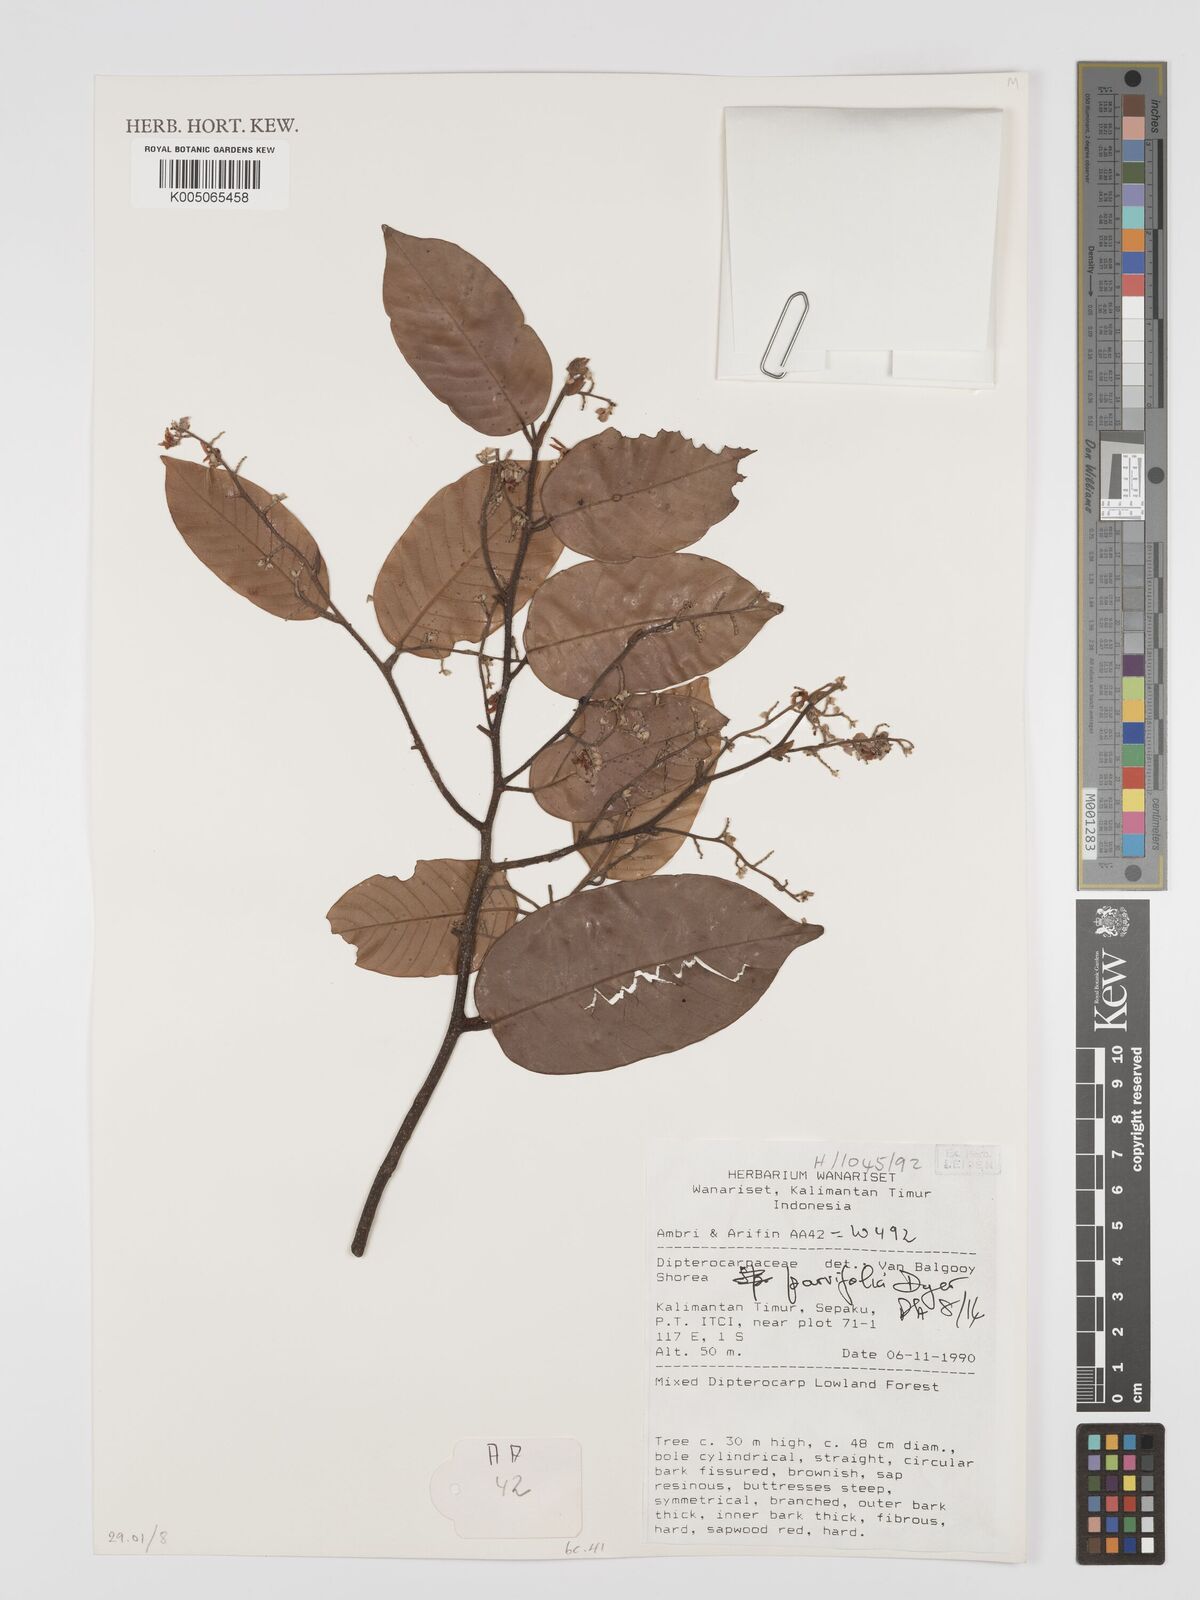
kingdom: Plantae
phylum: Tracheophyta
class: Magnoliopsida
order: Malvales
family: Dipterocarpaceae
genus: Shorea
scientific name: Shorea parvifolia
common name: Light red meranti
